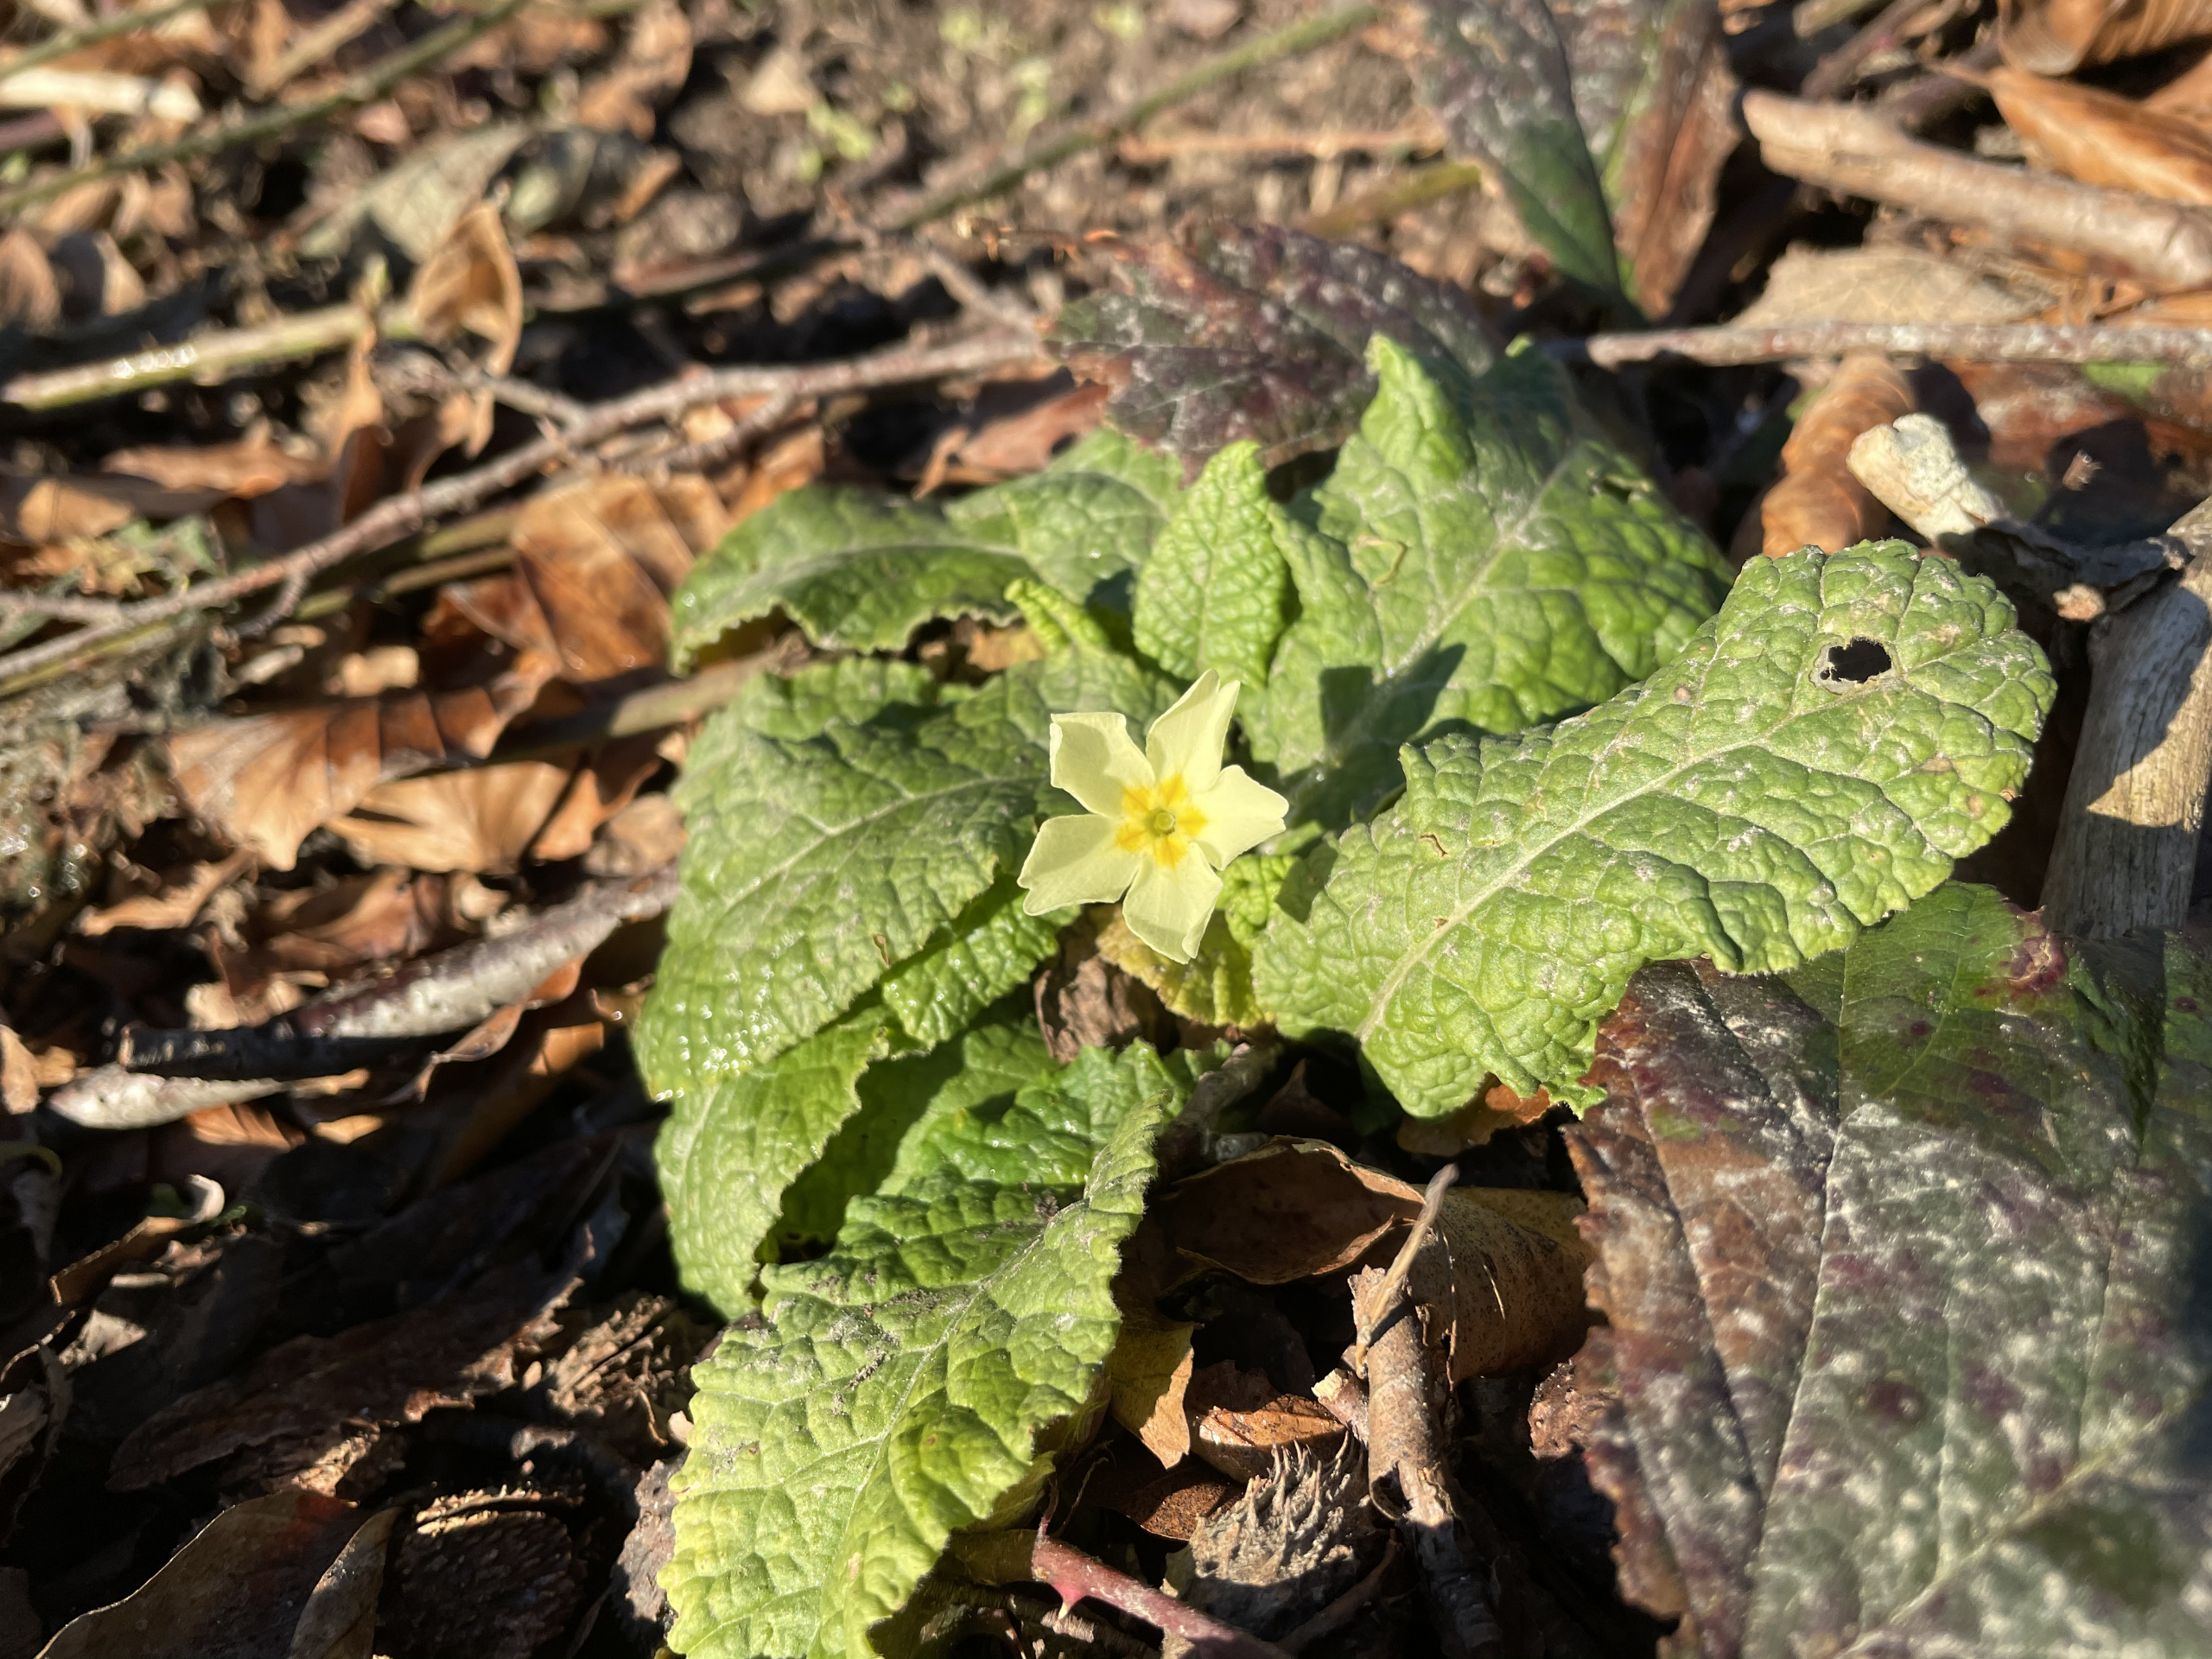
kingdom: Plantae
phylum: Tracheophyta
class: Magnoliopsida
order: Ericales
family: Primulaceae
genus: Primula
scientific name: Primula vulgaris
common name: Storblomstret kodriver
